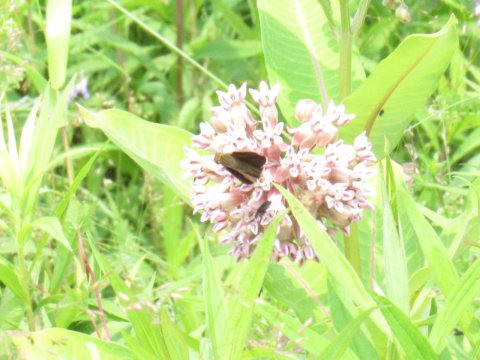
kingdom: Animalia
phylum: Arthropoda
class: Insecta
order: Lepidoptera
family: Hesperiidae
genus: Euphyes
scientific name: Euphyes vestris
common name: Dun Skipper
